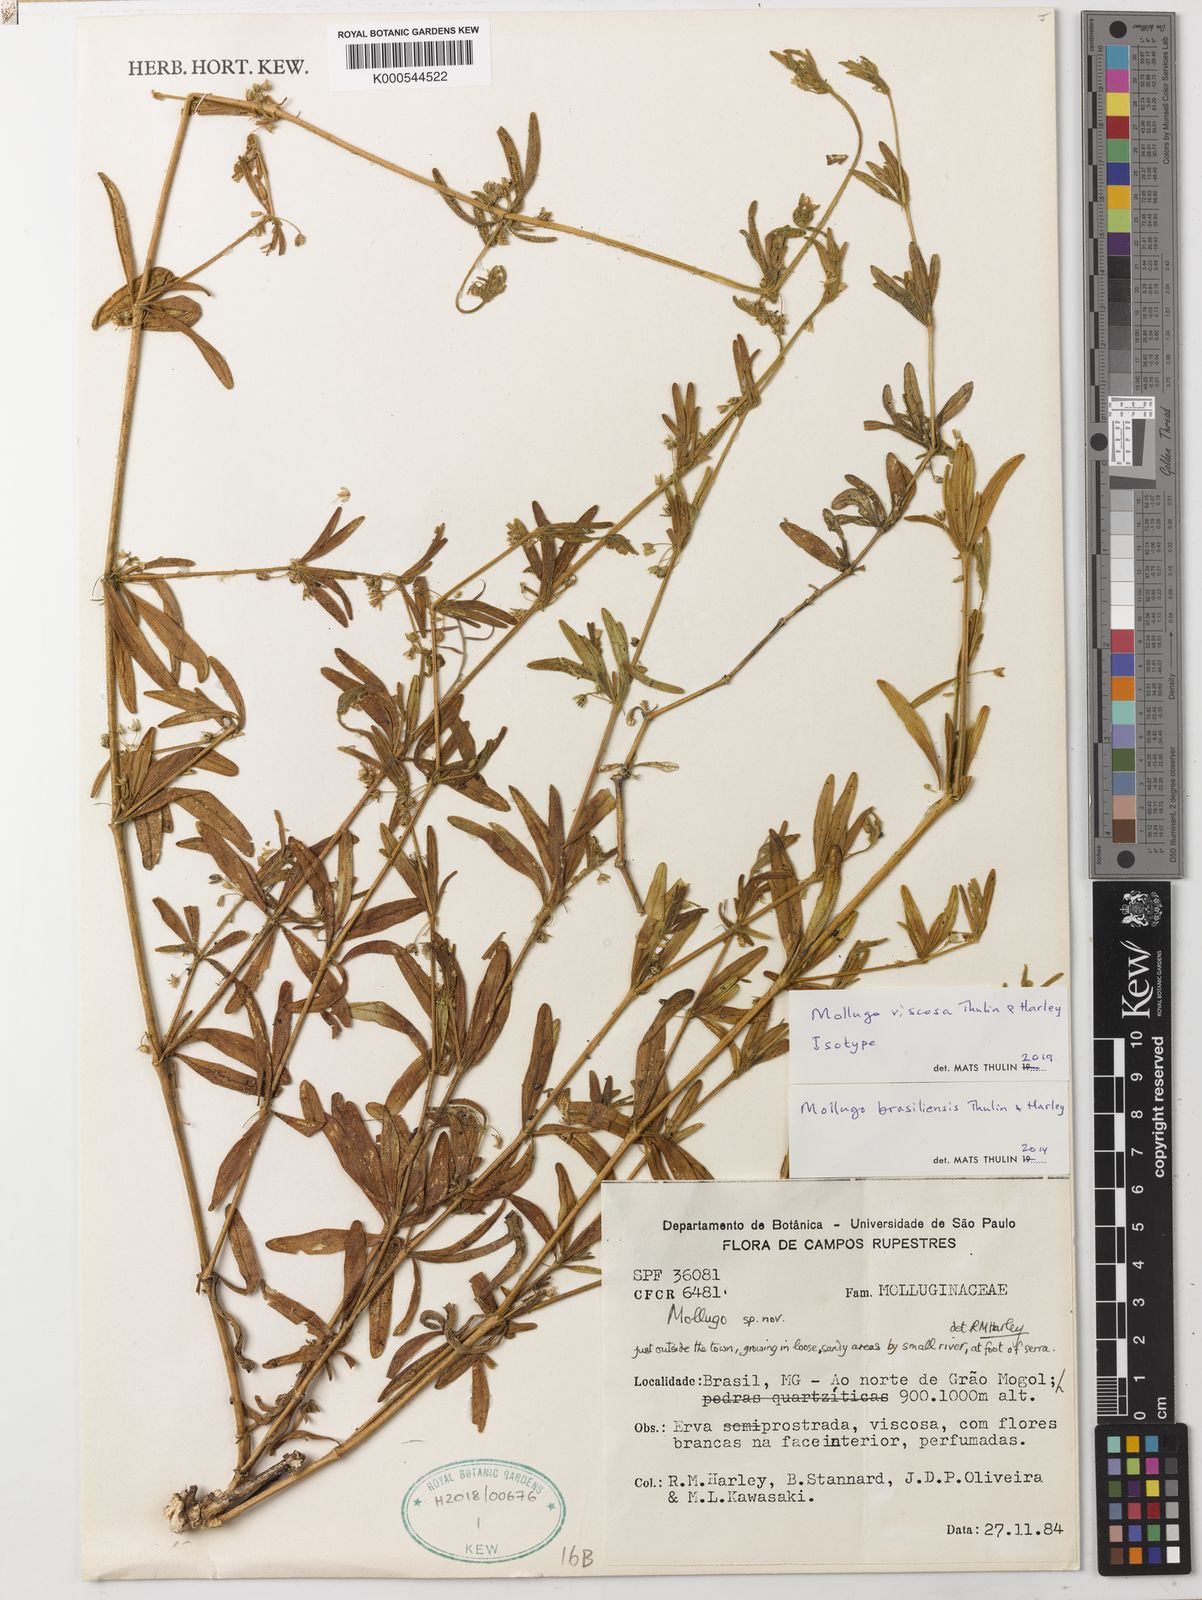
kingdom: Plantae
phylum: Tracheophyta
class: Magnoliopsida
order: Caryophyllales
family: Molluginaceae
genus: Mollugo
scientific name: Mollugo viscosa
